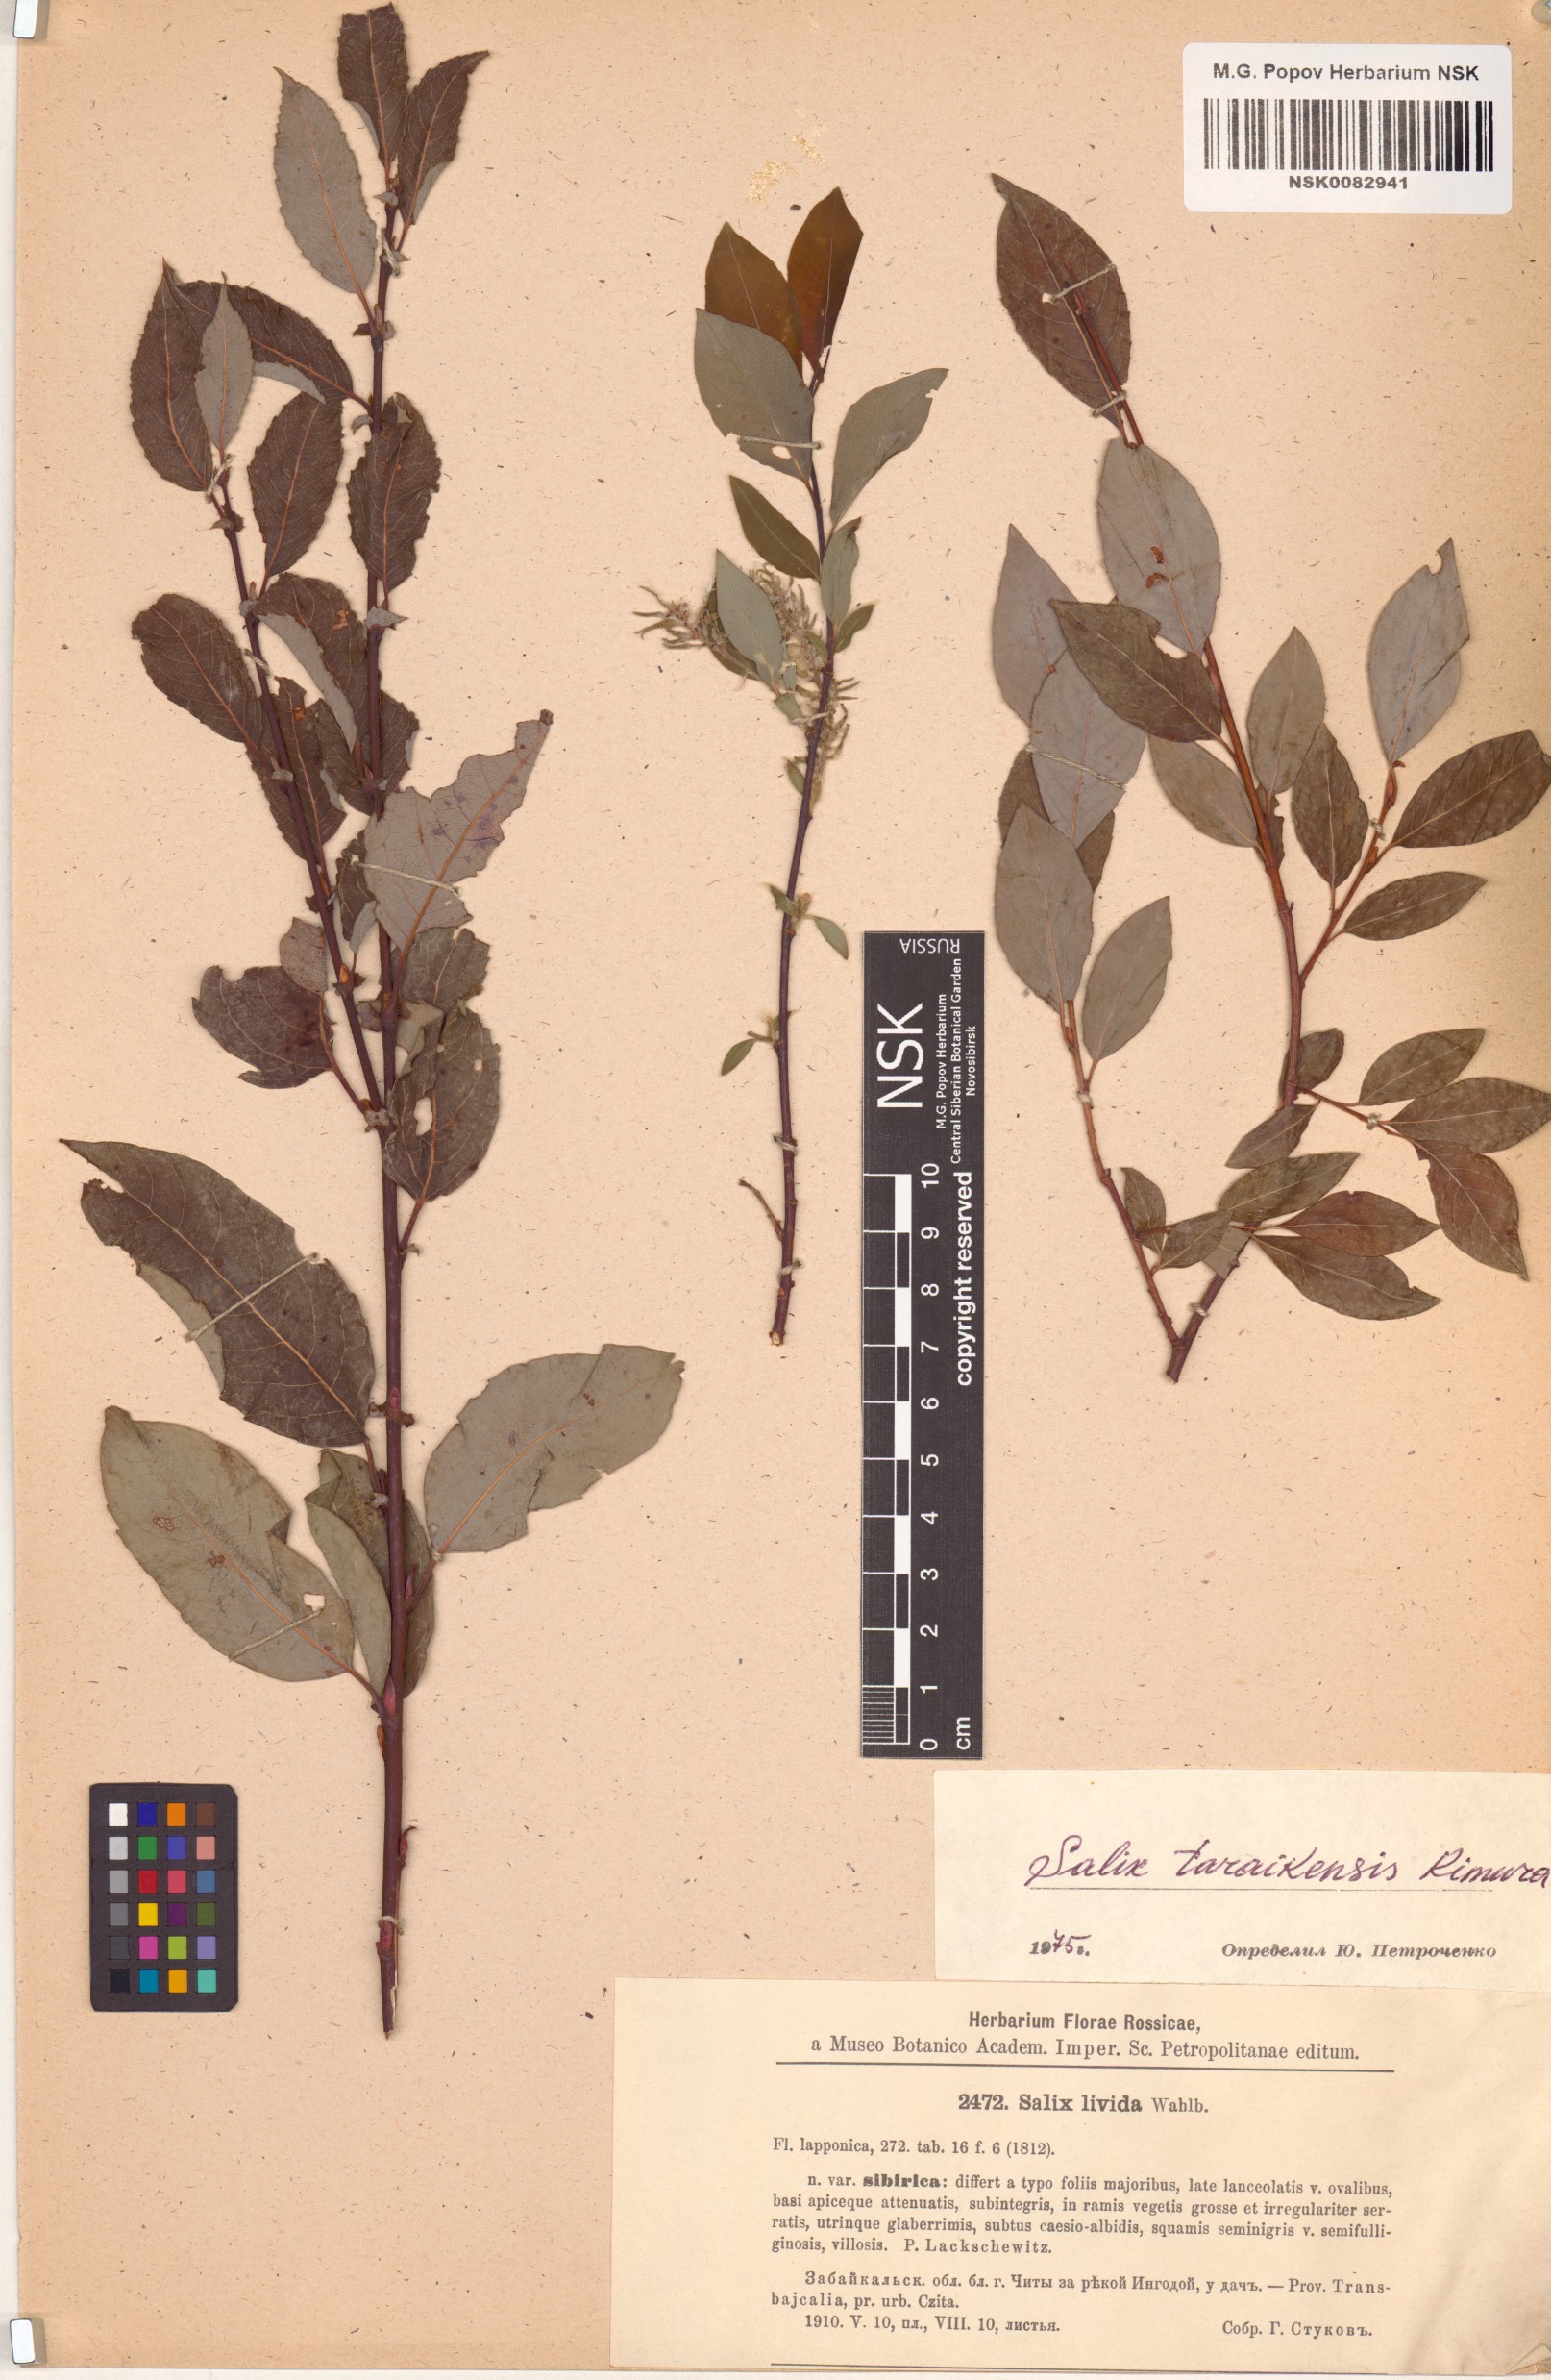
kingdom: Plantae
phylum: Tracheophyta
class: Magnoliopsida
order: Malpighiales
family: Salicaceae
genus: Salix
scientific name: Salix taraikensis
